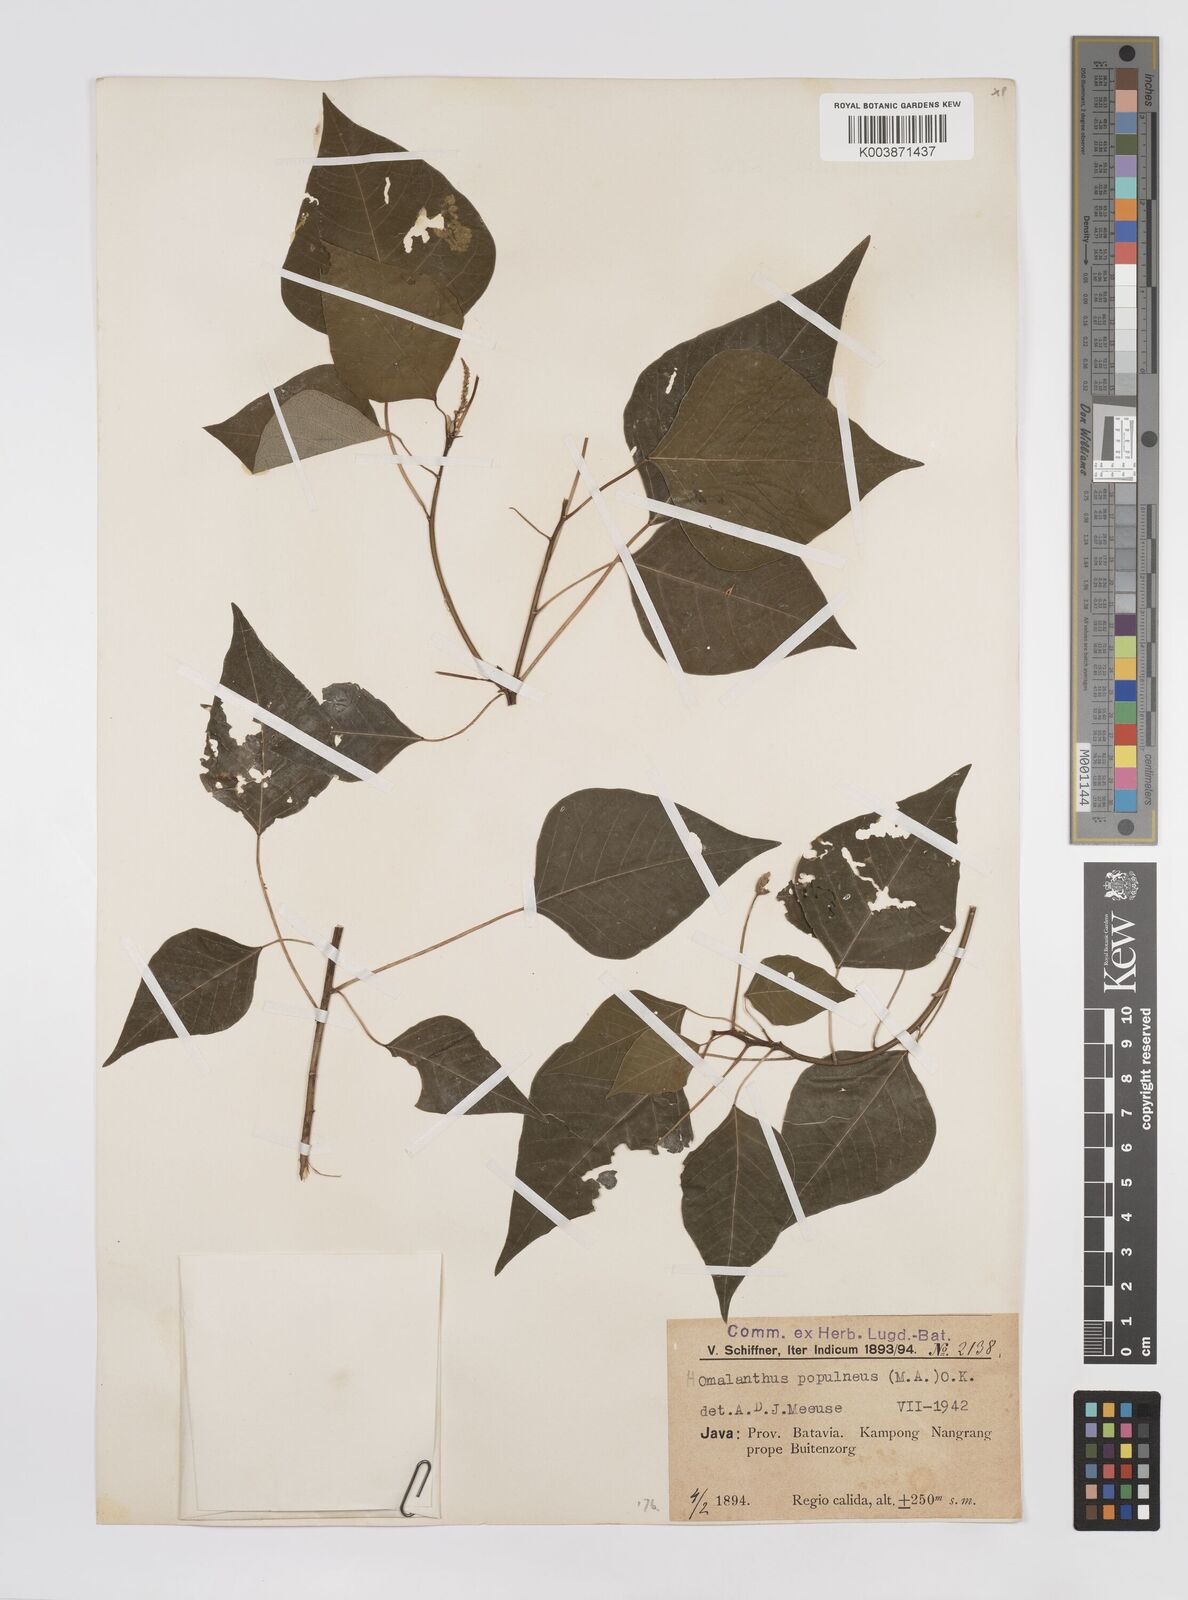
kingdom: Plantae
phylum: Tracheophyta
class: Magnoliopsida
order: Malpighiales
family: Euphorbiaceae
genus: Homalanthus
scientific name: Homalanthus populneus
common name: Spurge
